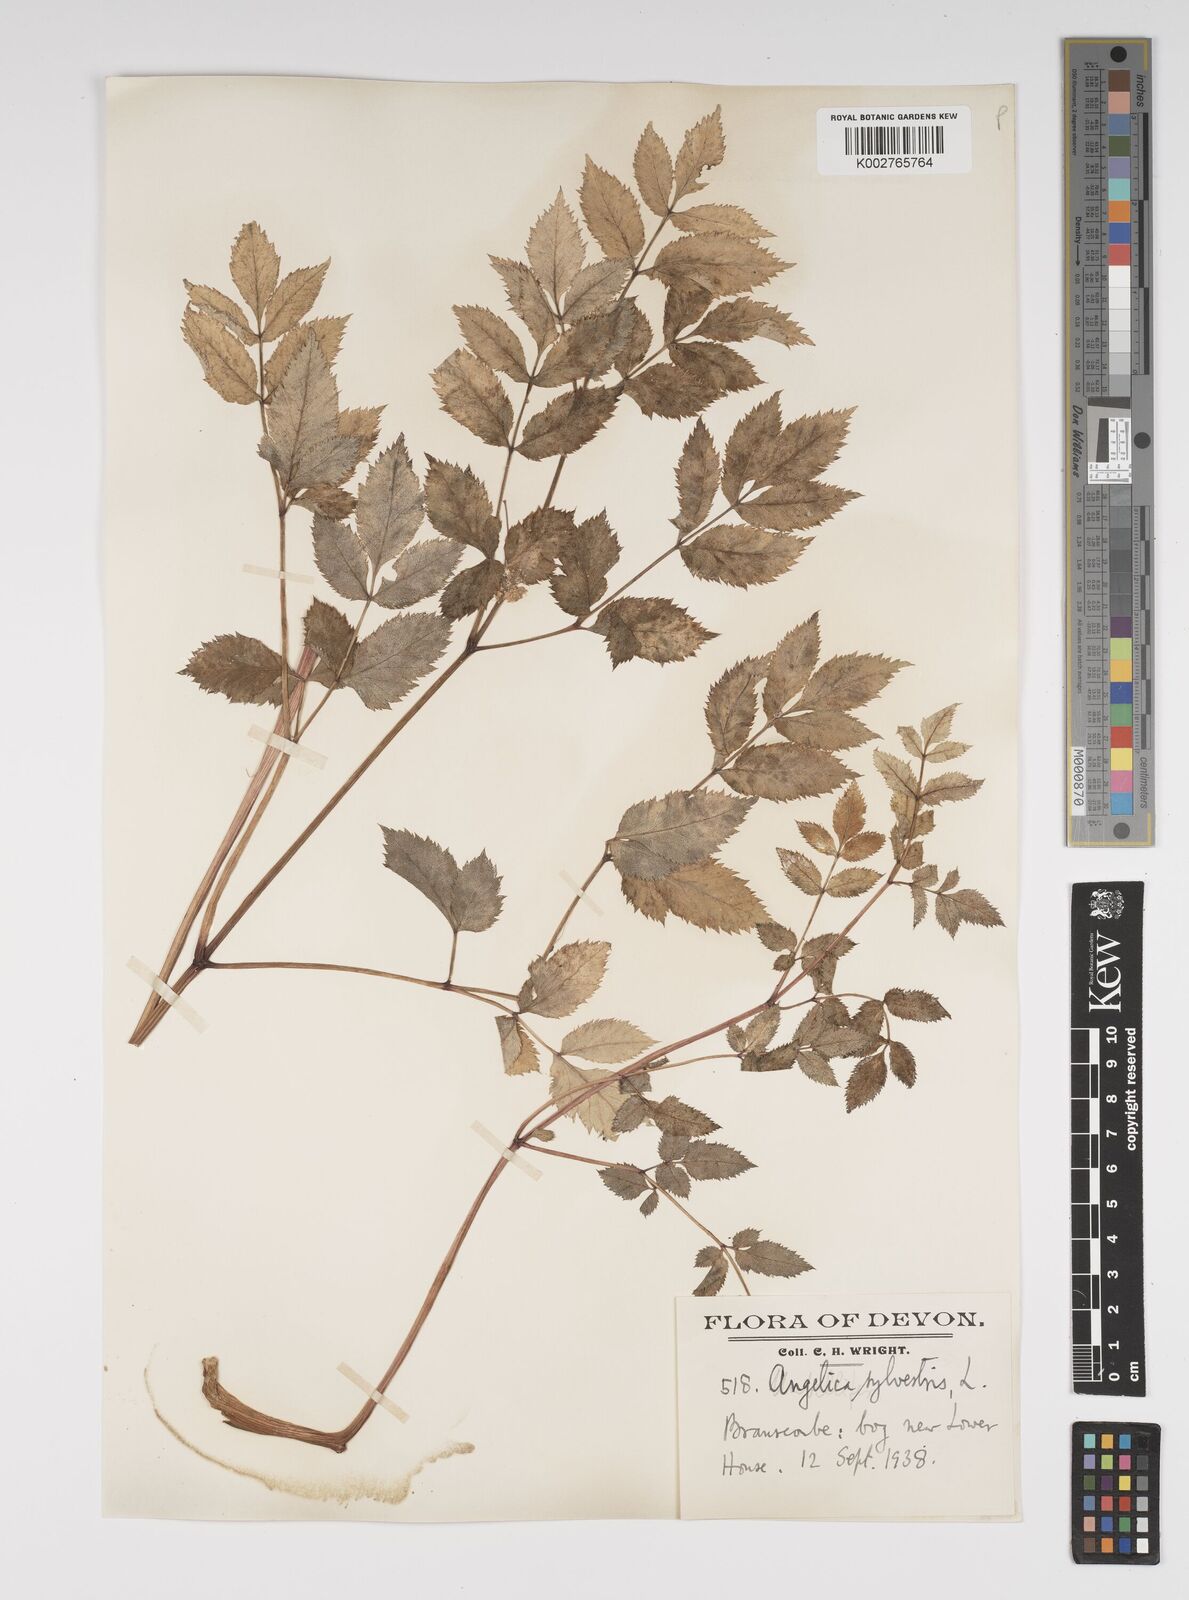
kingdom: Plantae
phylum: Tracheophyta
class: Magnoliopsida
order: Apiales
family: Apiaceae
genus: Angelica
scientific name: Angelica sylvestris
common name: Wild angelica
